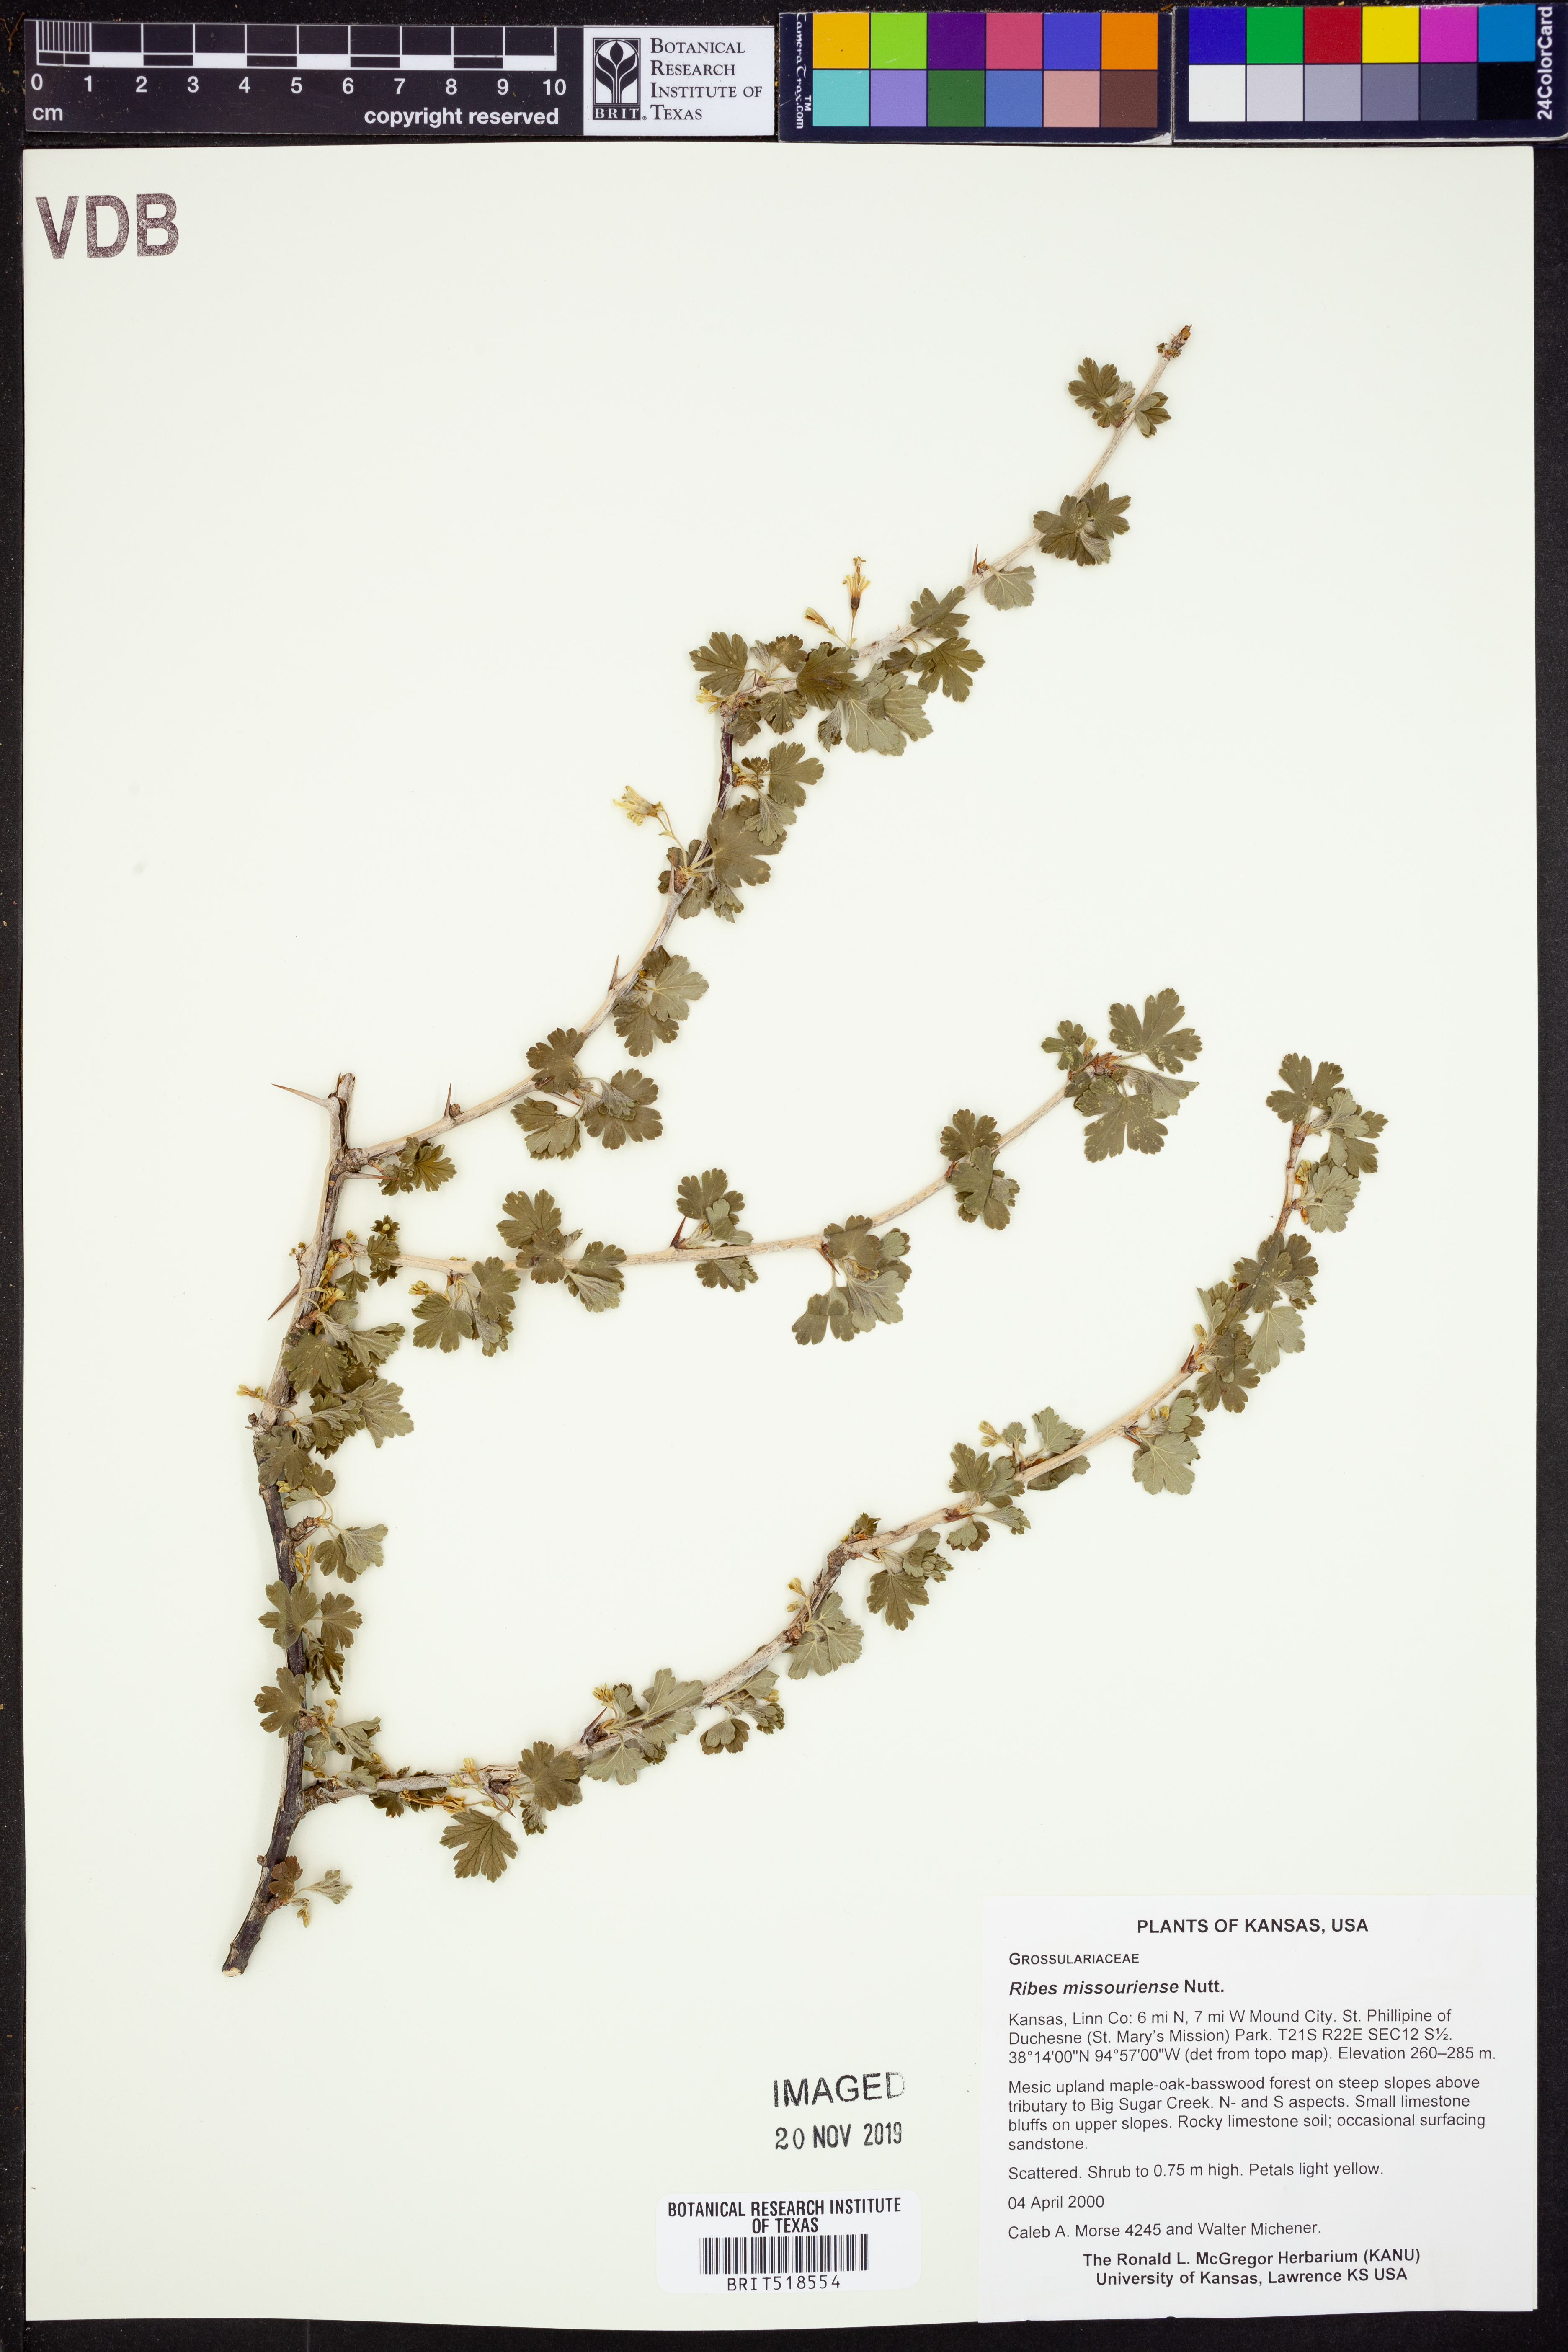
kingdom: Plantae
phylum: Tracheophyta
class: Magnoliopsida
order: Saxifragales
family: Grossulariaceae
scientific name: Grossulariaceae
